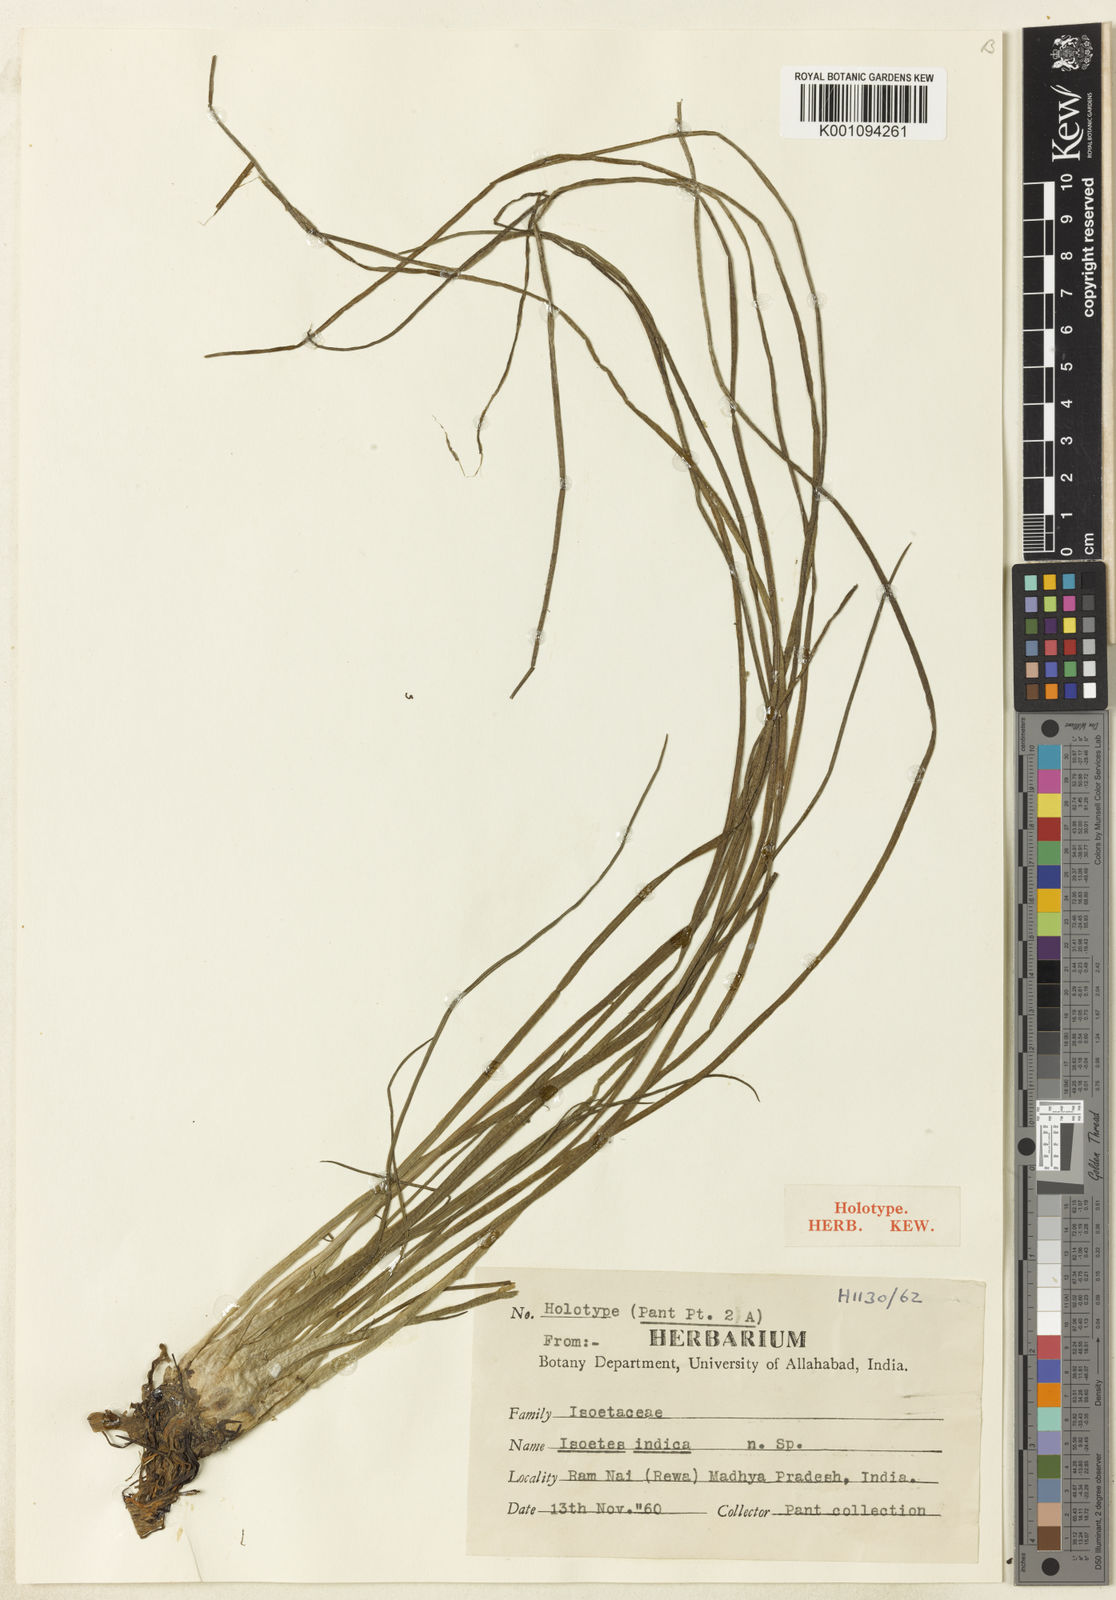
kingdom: Plantae
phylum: Tracheophyta
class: Lycopodiopsida
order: Isoetales
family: Isoetaceae
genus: Isoetes
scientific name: Isoetes coromandelina
